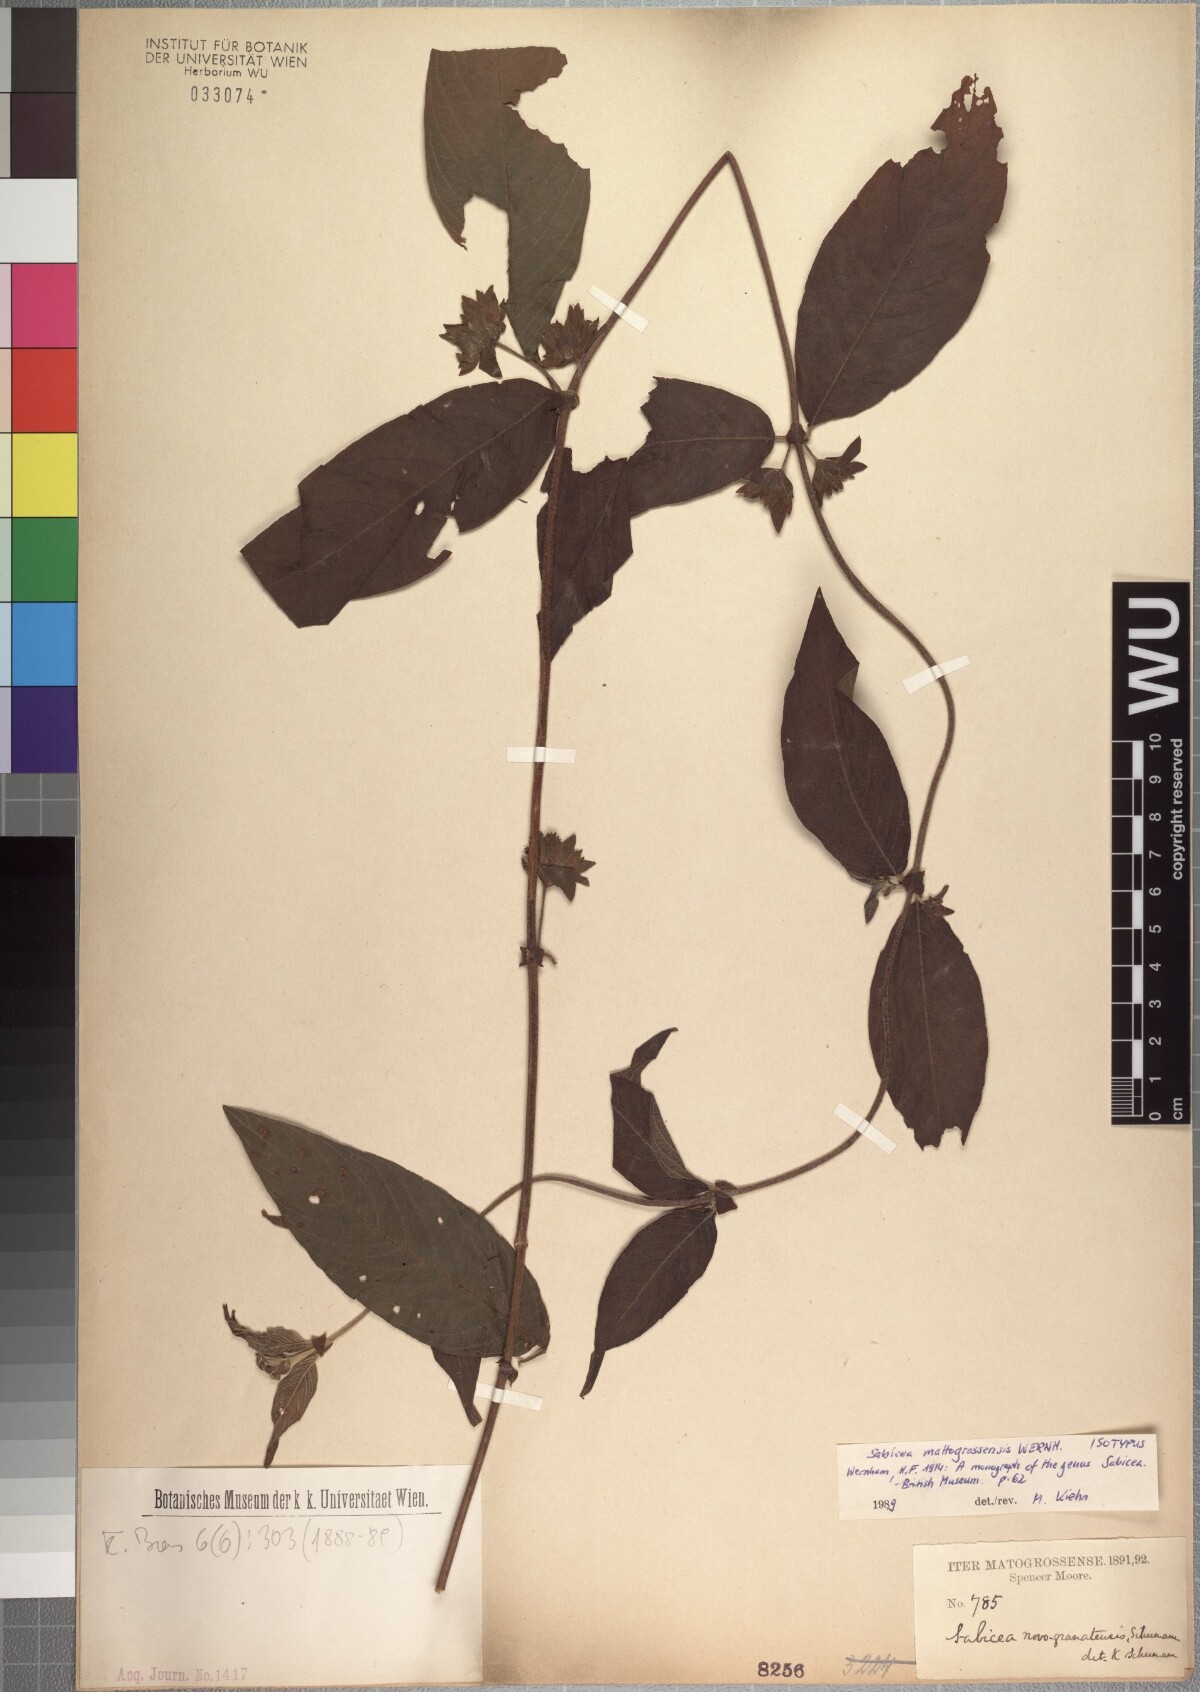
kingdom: Plantae
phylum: Tracheophyta
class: Magnoliopsida
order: Gentianales
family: Rubiaceae
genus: Sabicea
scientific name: Sabicea mattogrossensis
